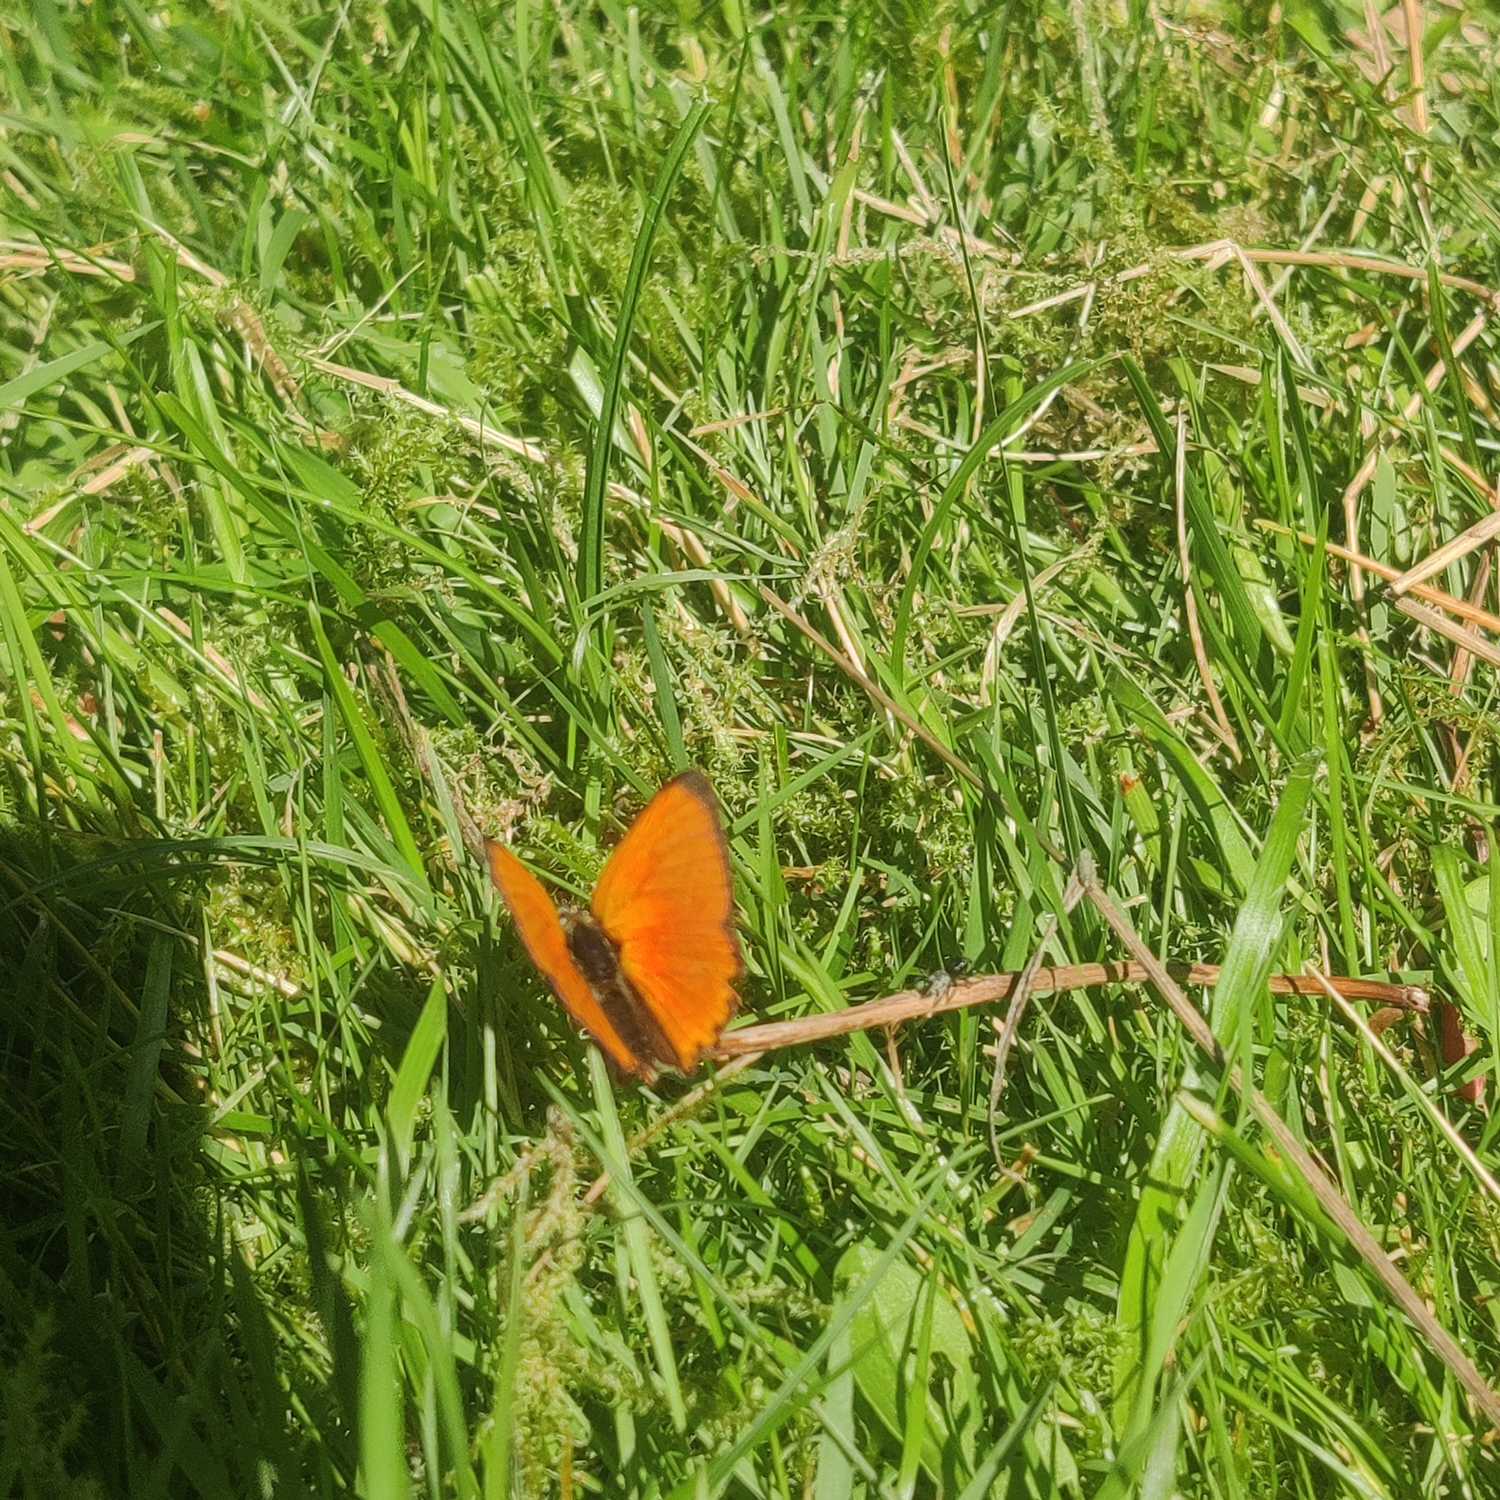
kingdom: Animalia
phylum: Arthropoda
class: Insecta
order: Lepidoptera
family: Lycaenidae
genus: Lycaena
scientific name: Lycaena virgaureae
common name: Dukatsommerfugl
